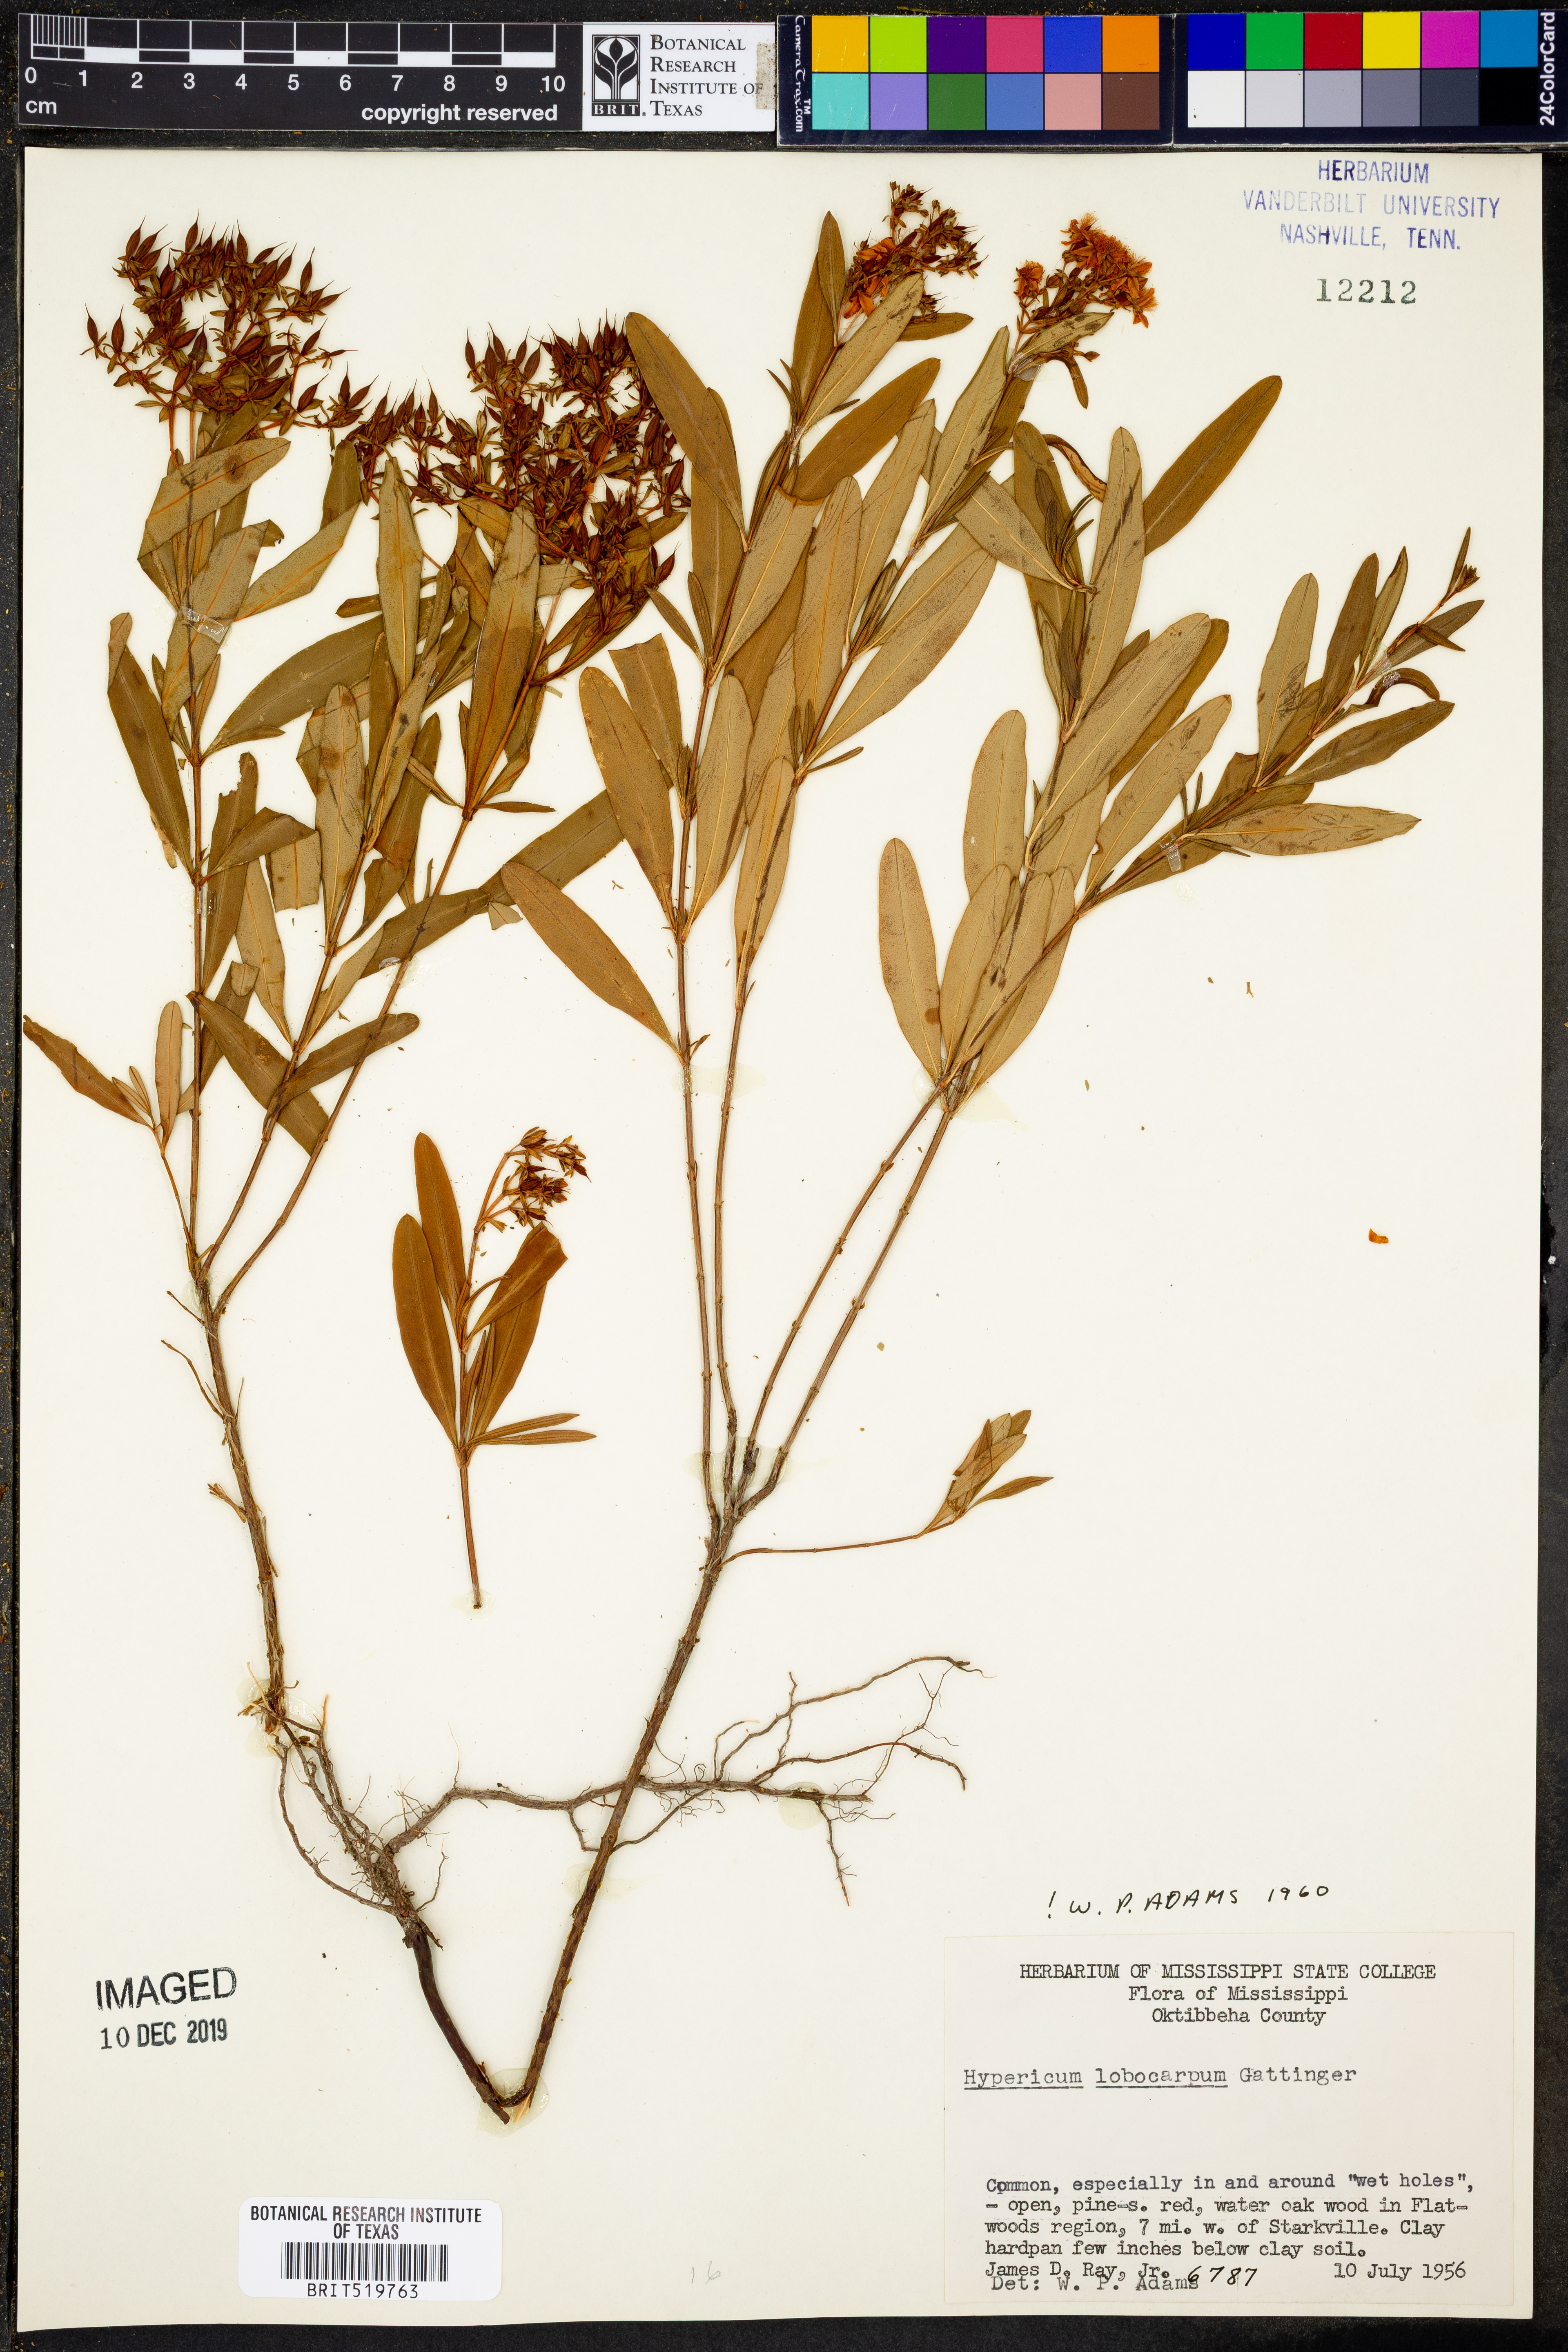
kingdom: Plantae
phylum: Tracheophyta
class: Magnoliopsida
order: Malpighiales
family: Hypericaceae
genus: Hypericum
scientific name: Hypericum lobocarpum
